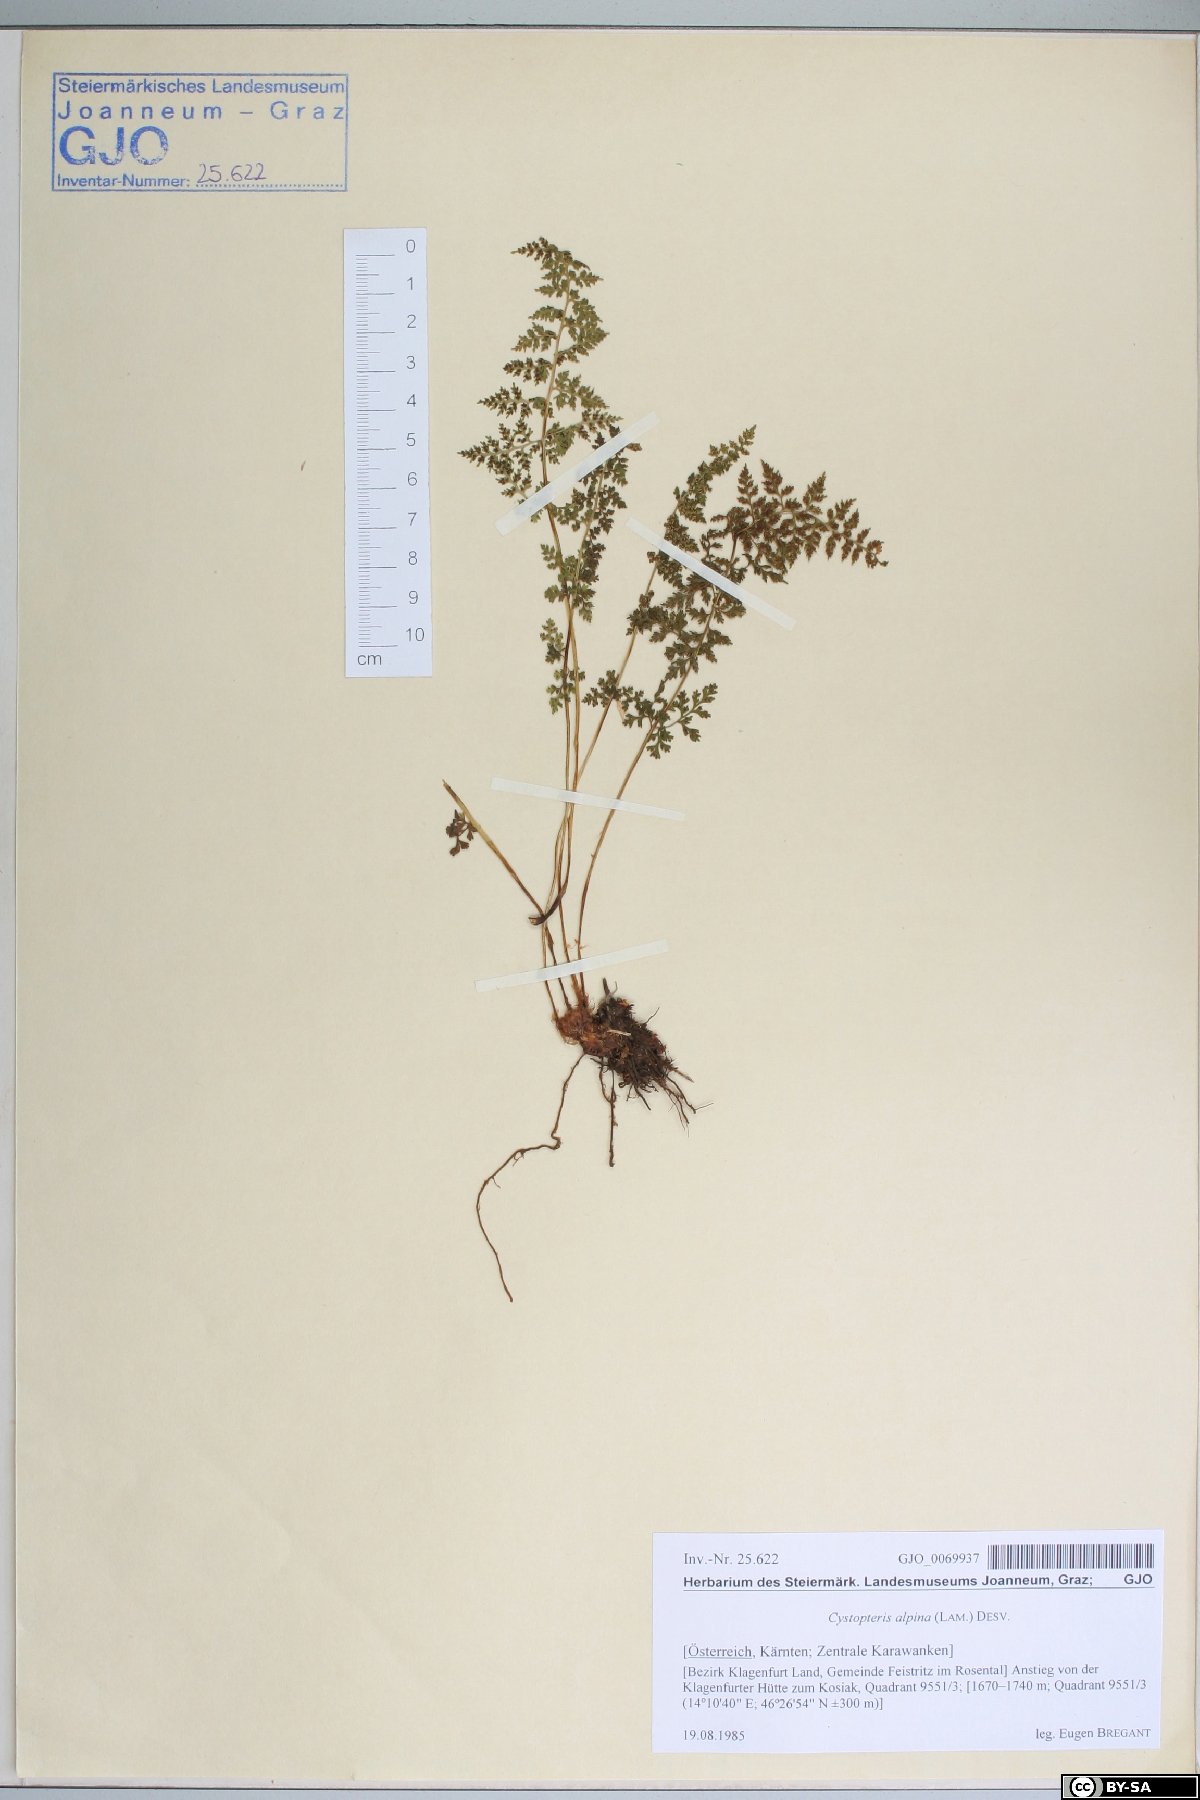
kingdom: Plantae
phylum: Tracheophyta
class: Polypodiopsida
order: Polypodiales
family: Cystopteridaceae
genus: Cystopteris
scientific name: Cystopteris alpina
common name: Alpine bladder-fern
